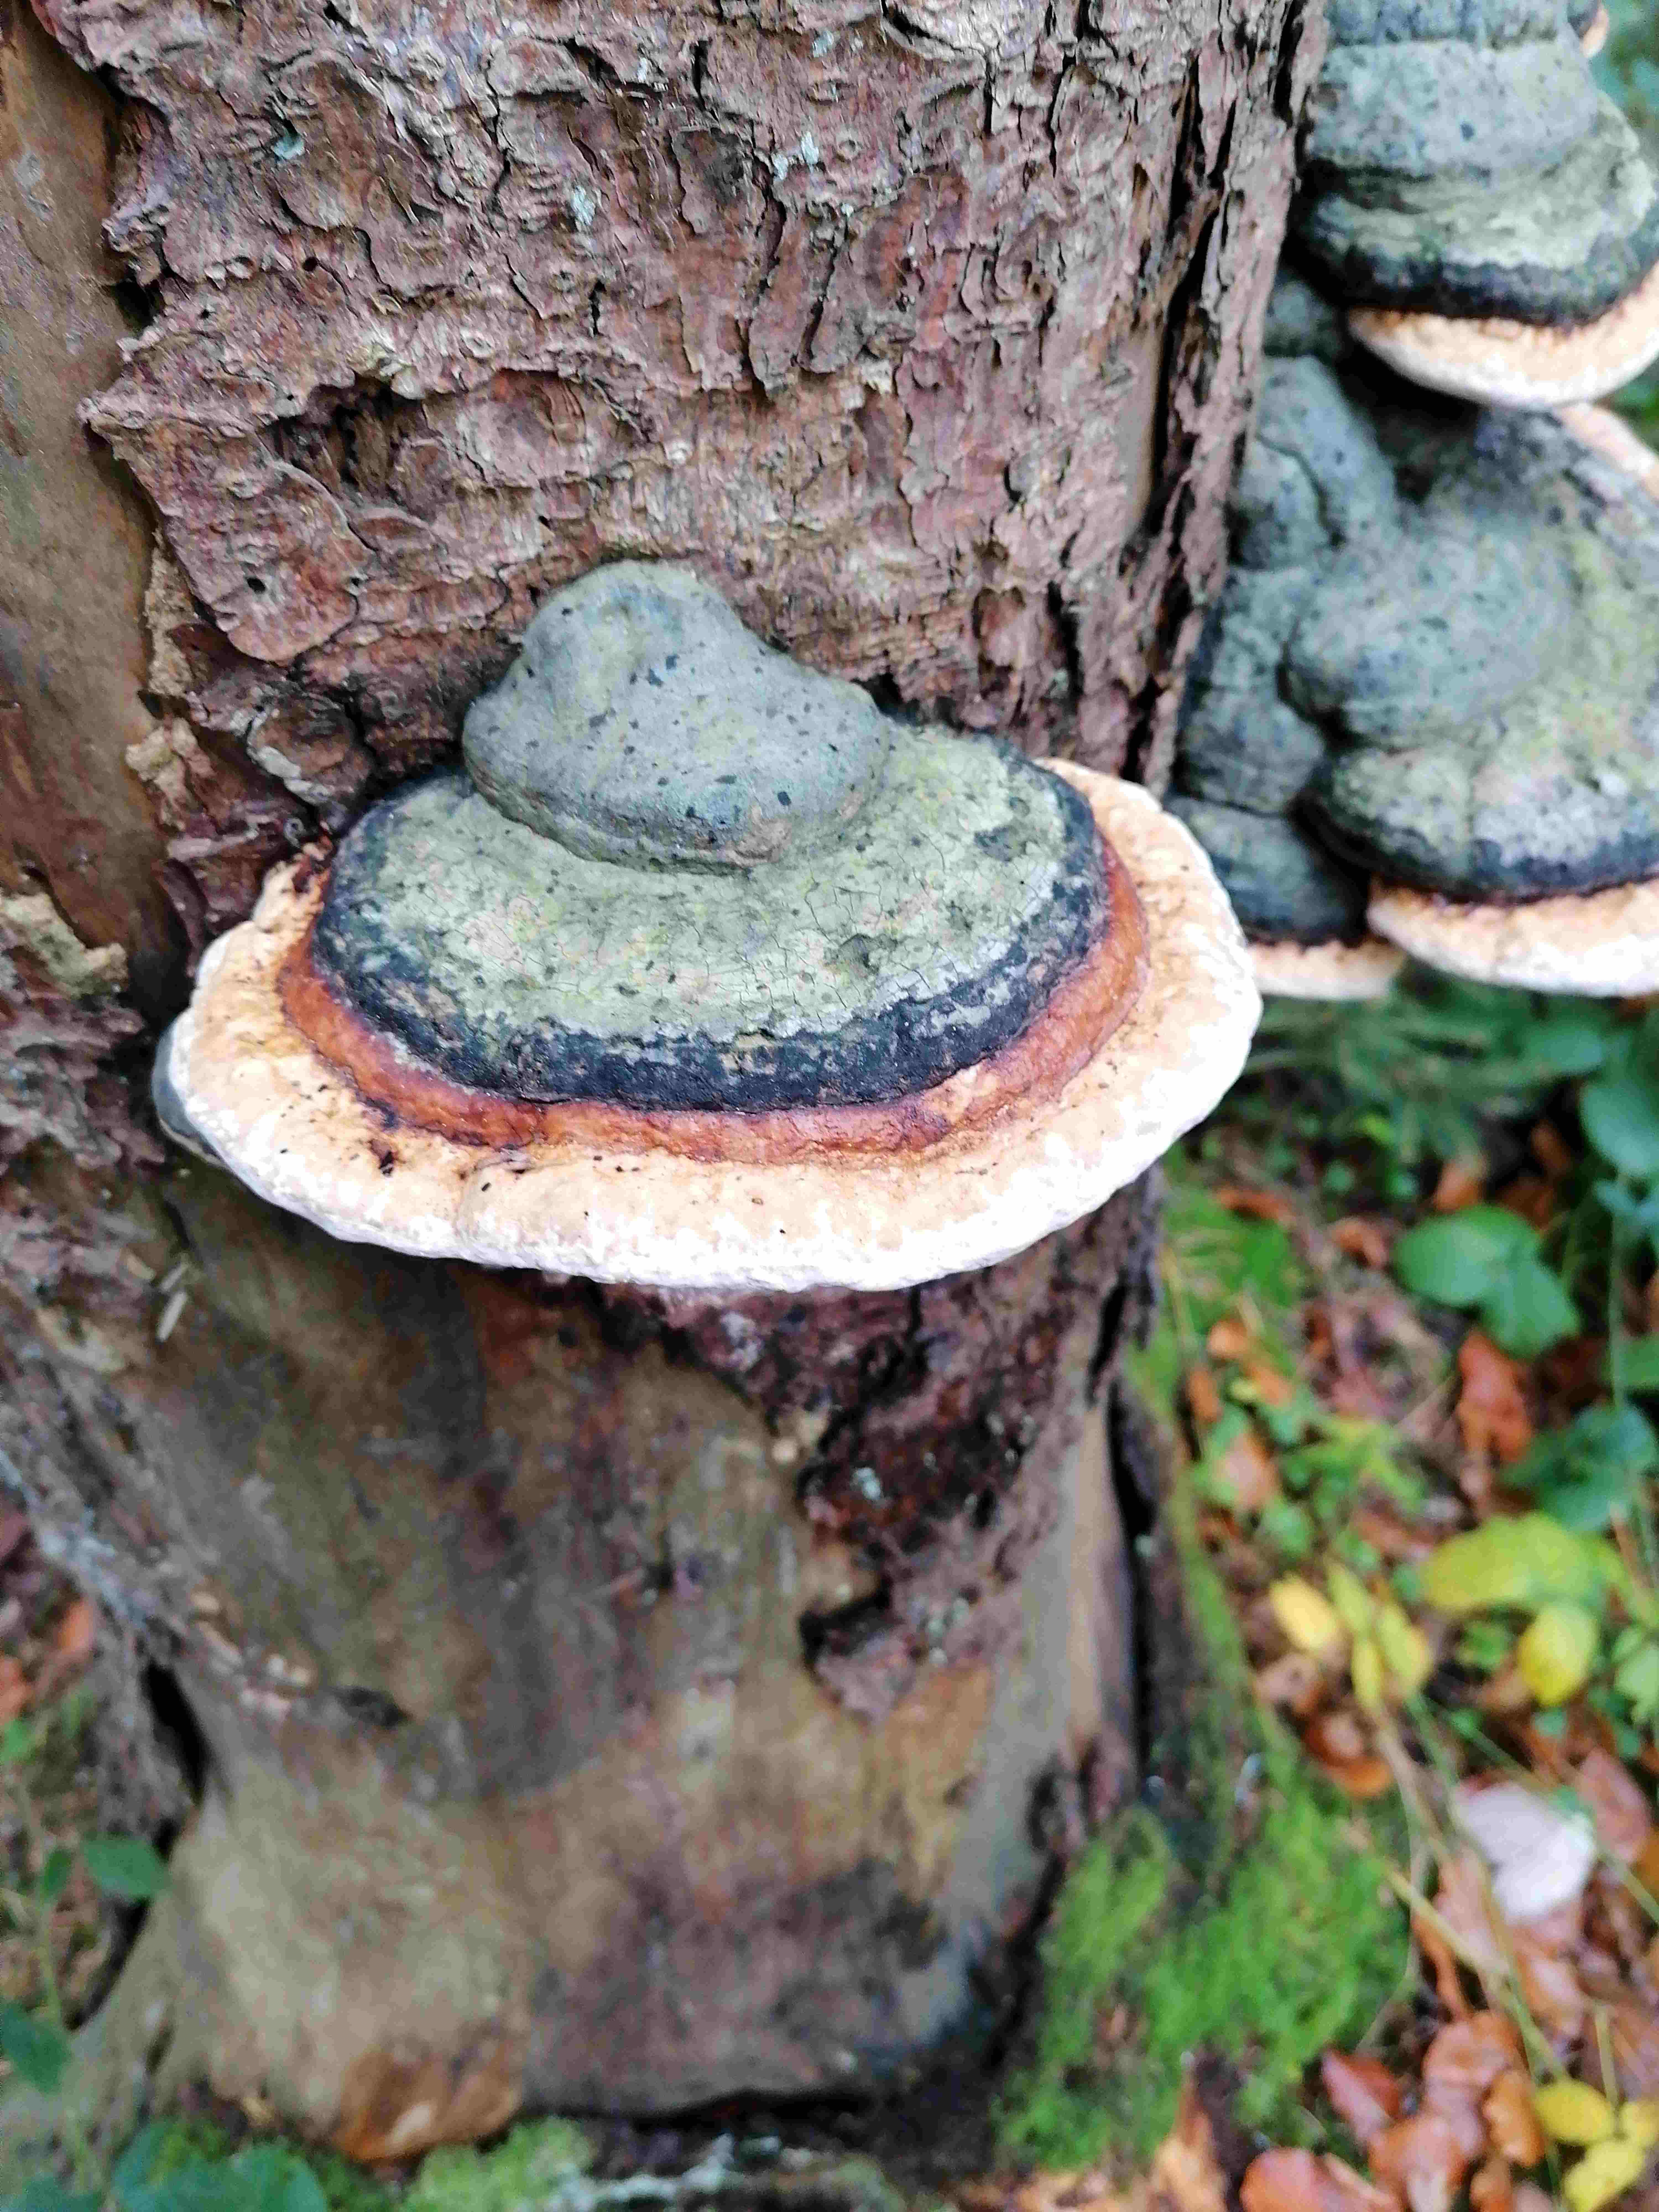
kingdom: Fungi
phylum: Basidiomycota
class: Agaricomycetes
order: Polyporales
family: Fomitopsidaceae
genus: Fomitopsis
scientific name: Fomitopsis pinicola
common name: randbæltet hovporesvamp
